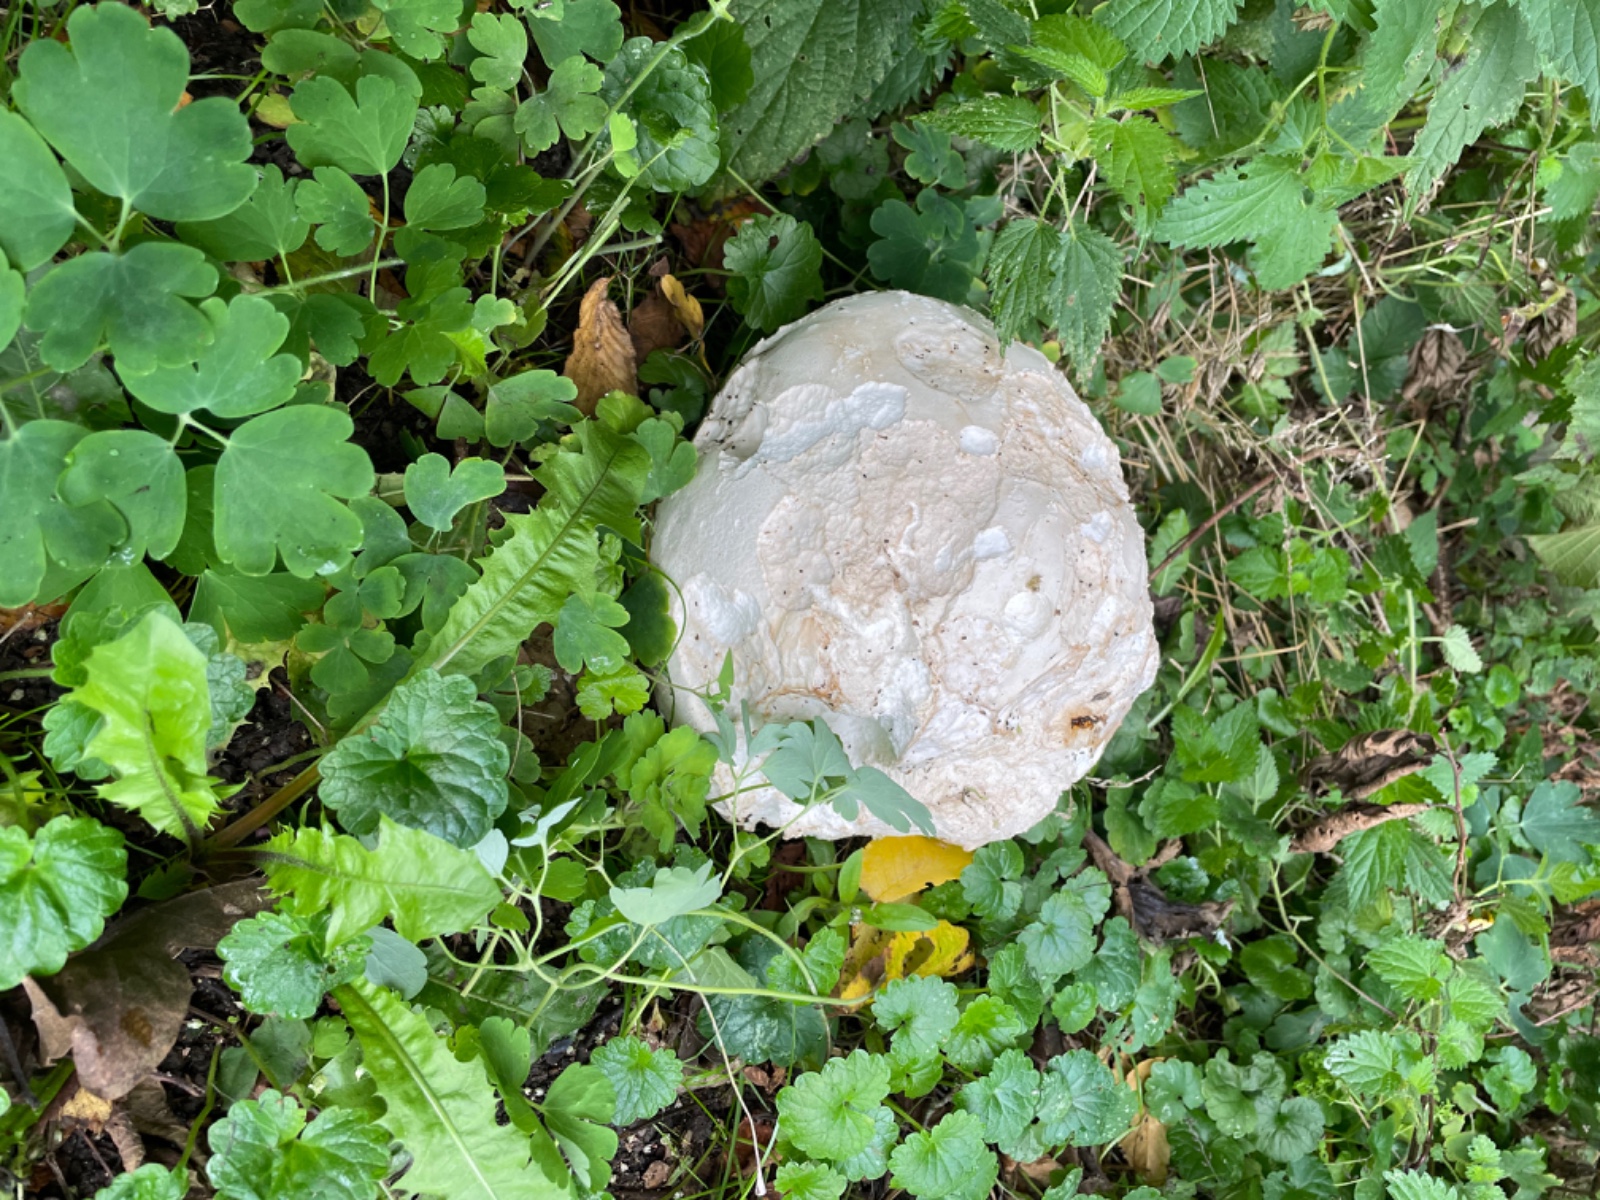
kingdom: Fungi
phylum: Basidiomycota
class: Agaricomycetes
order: Agaricales
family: Lycoperdaceae
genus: Calvatia
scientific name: Calvatia gigantea
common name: kæmpestøvbold
